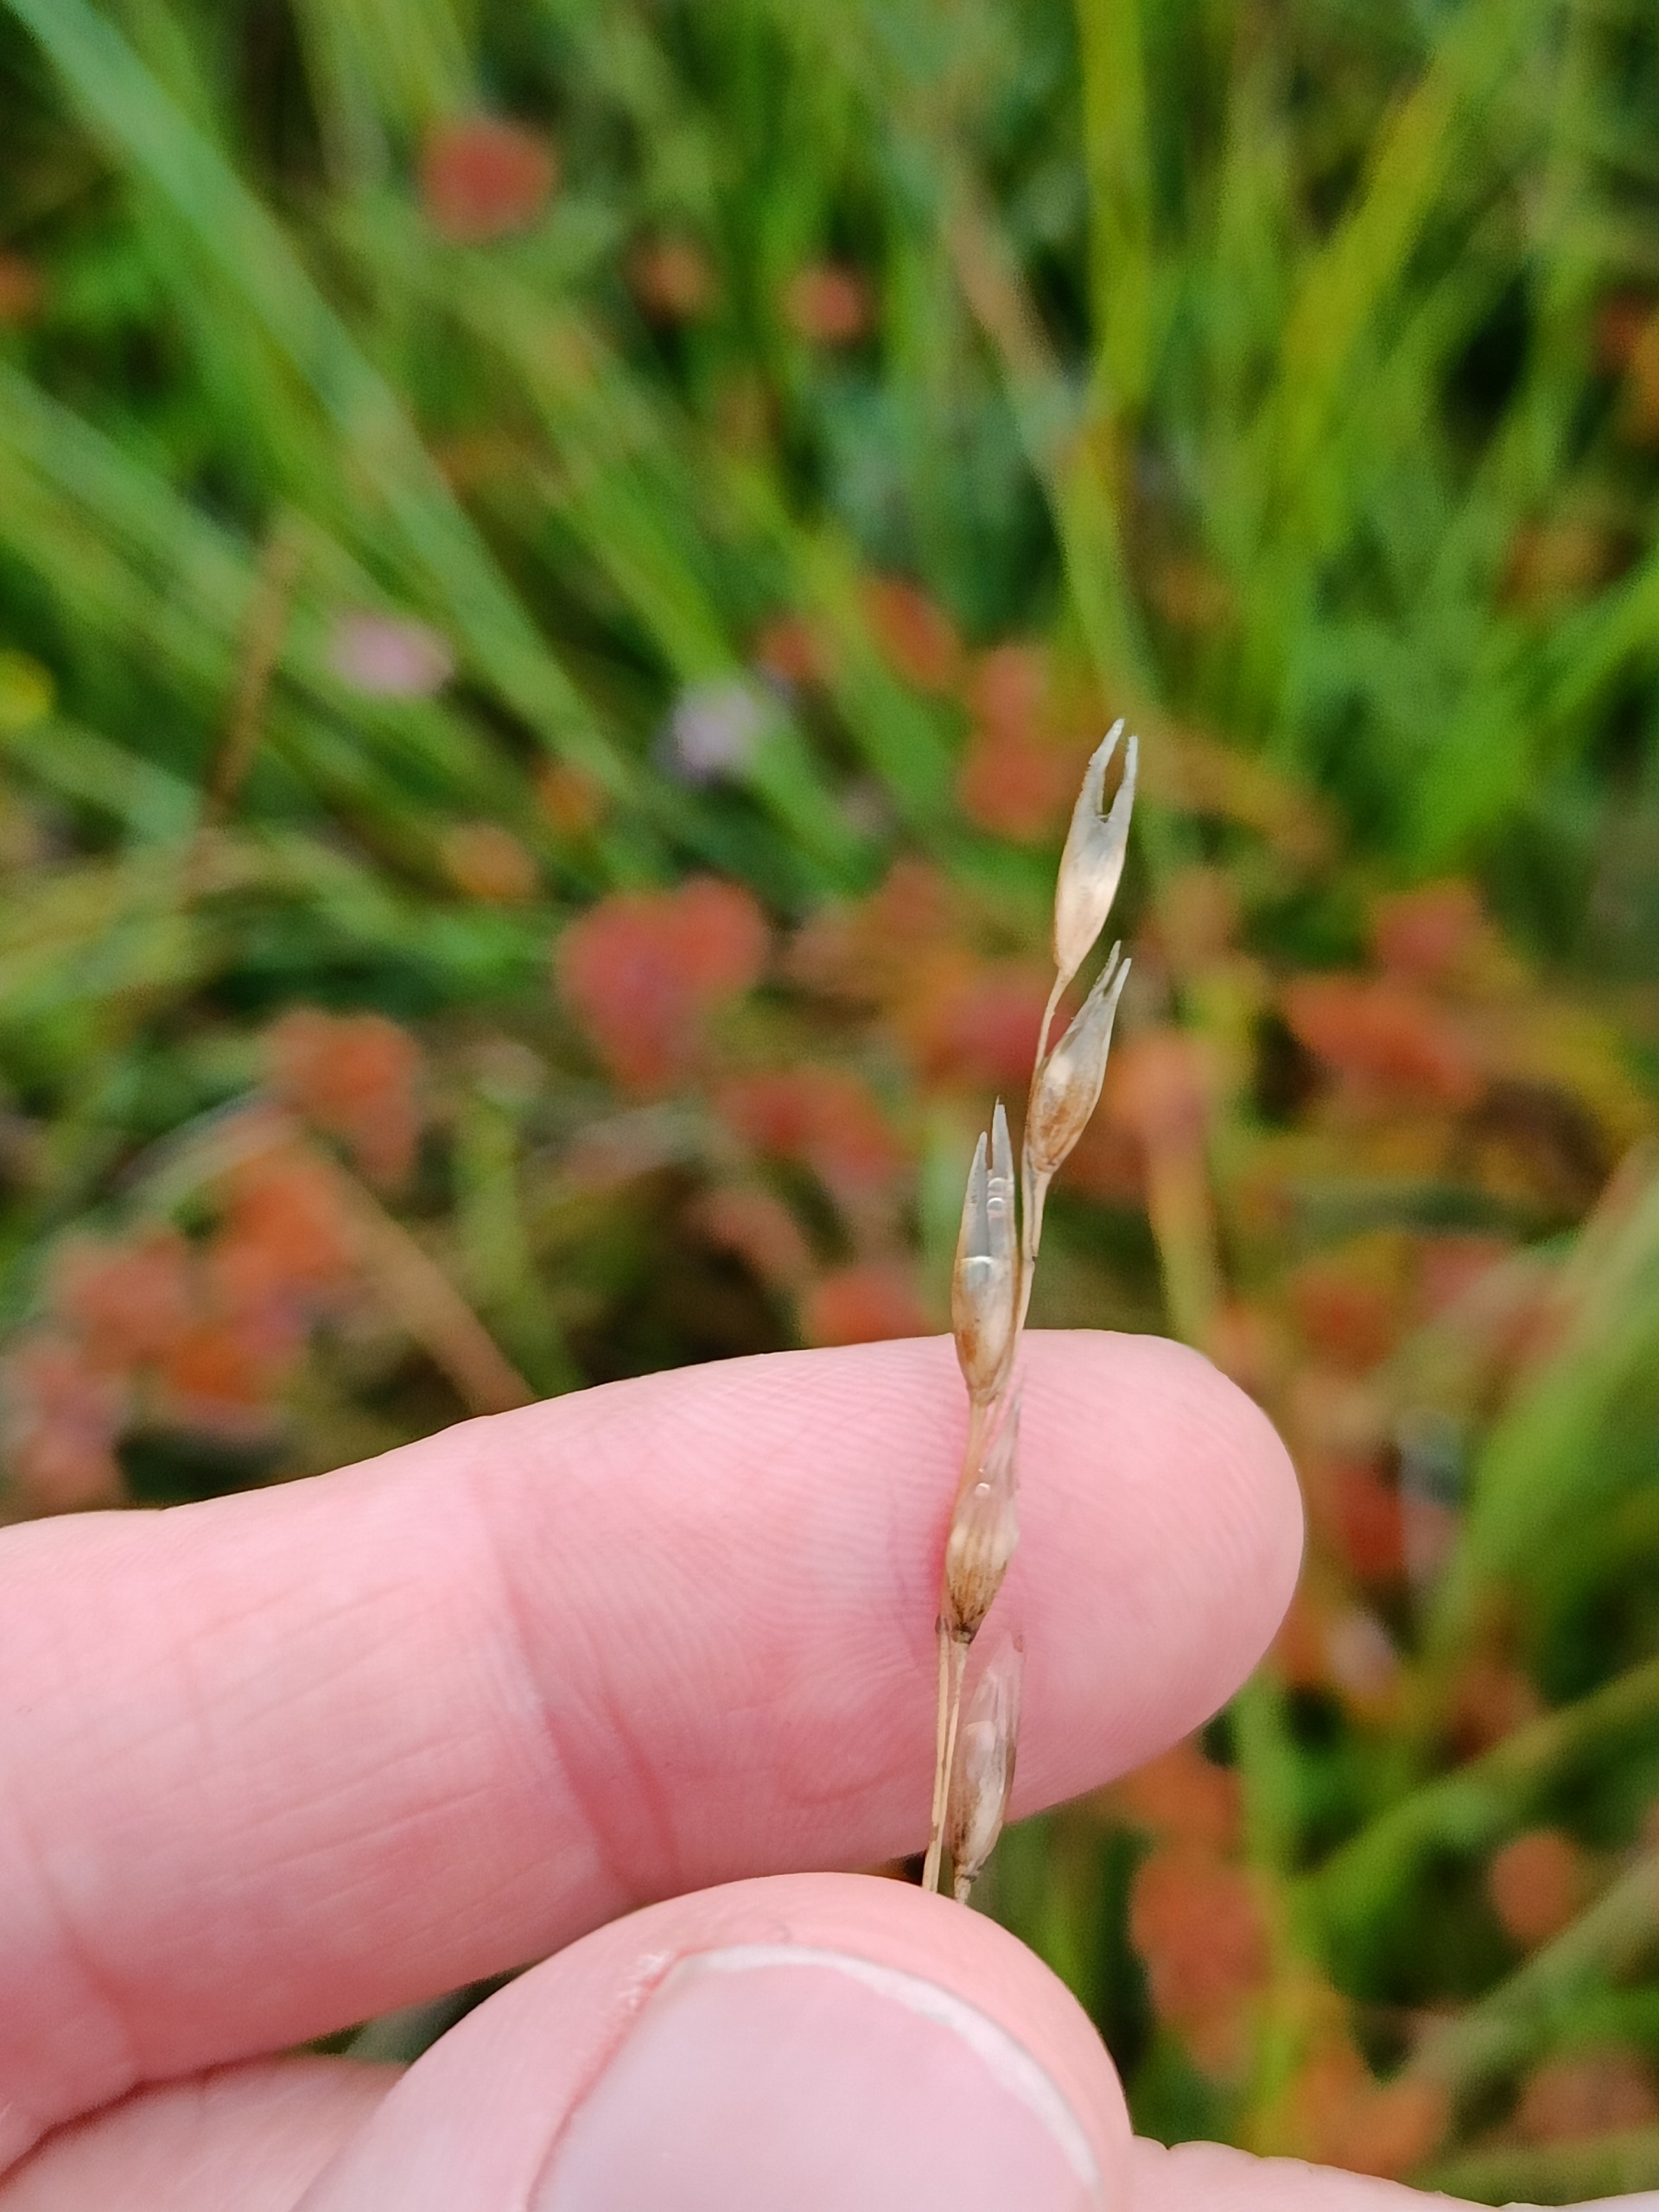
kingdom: Plantae
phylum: Tracheophyta
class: Liliopsida
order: Poales
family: Poaceae
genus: Danthonia
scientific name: Danthonia decumbens
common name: Tandbælg
